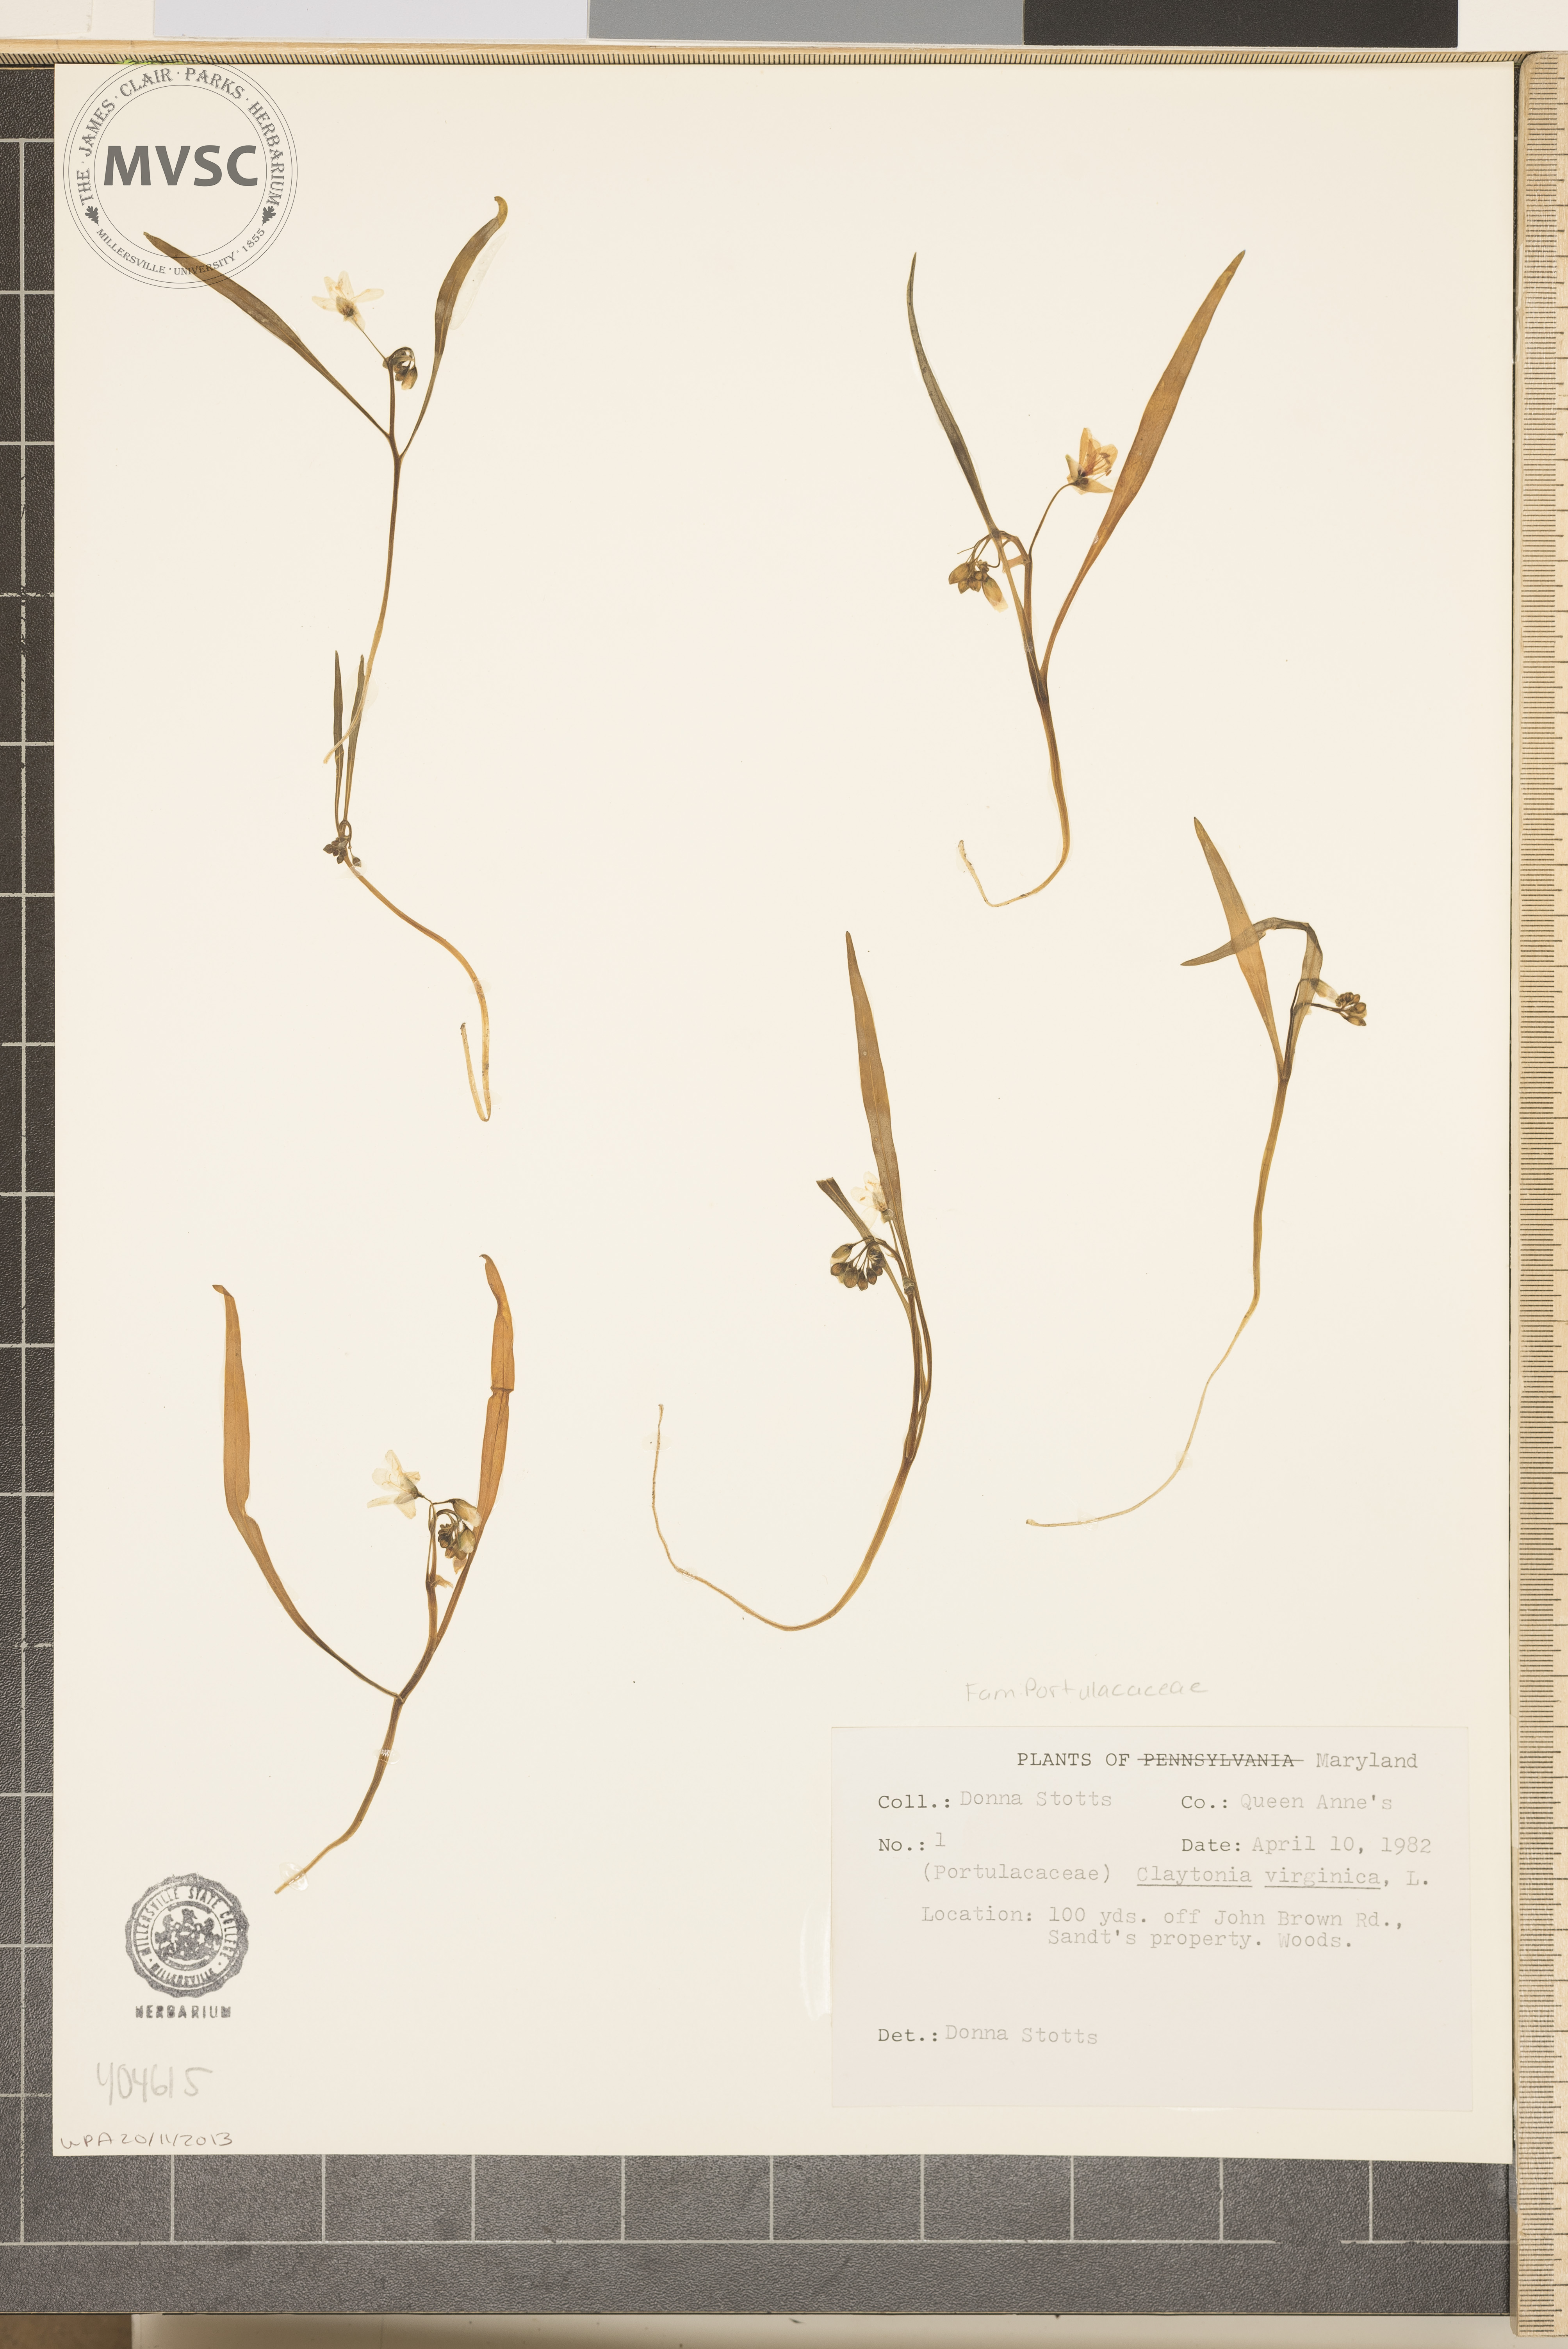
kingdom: Plantae
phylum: Tracheophyta
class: Magnoliopsida
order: Caryophyllales
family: Montiaceae
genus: Claytonia
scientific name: Claytonia virginica
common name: Virginia springbeauty
